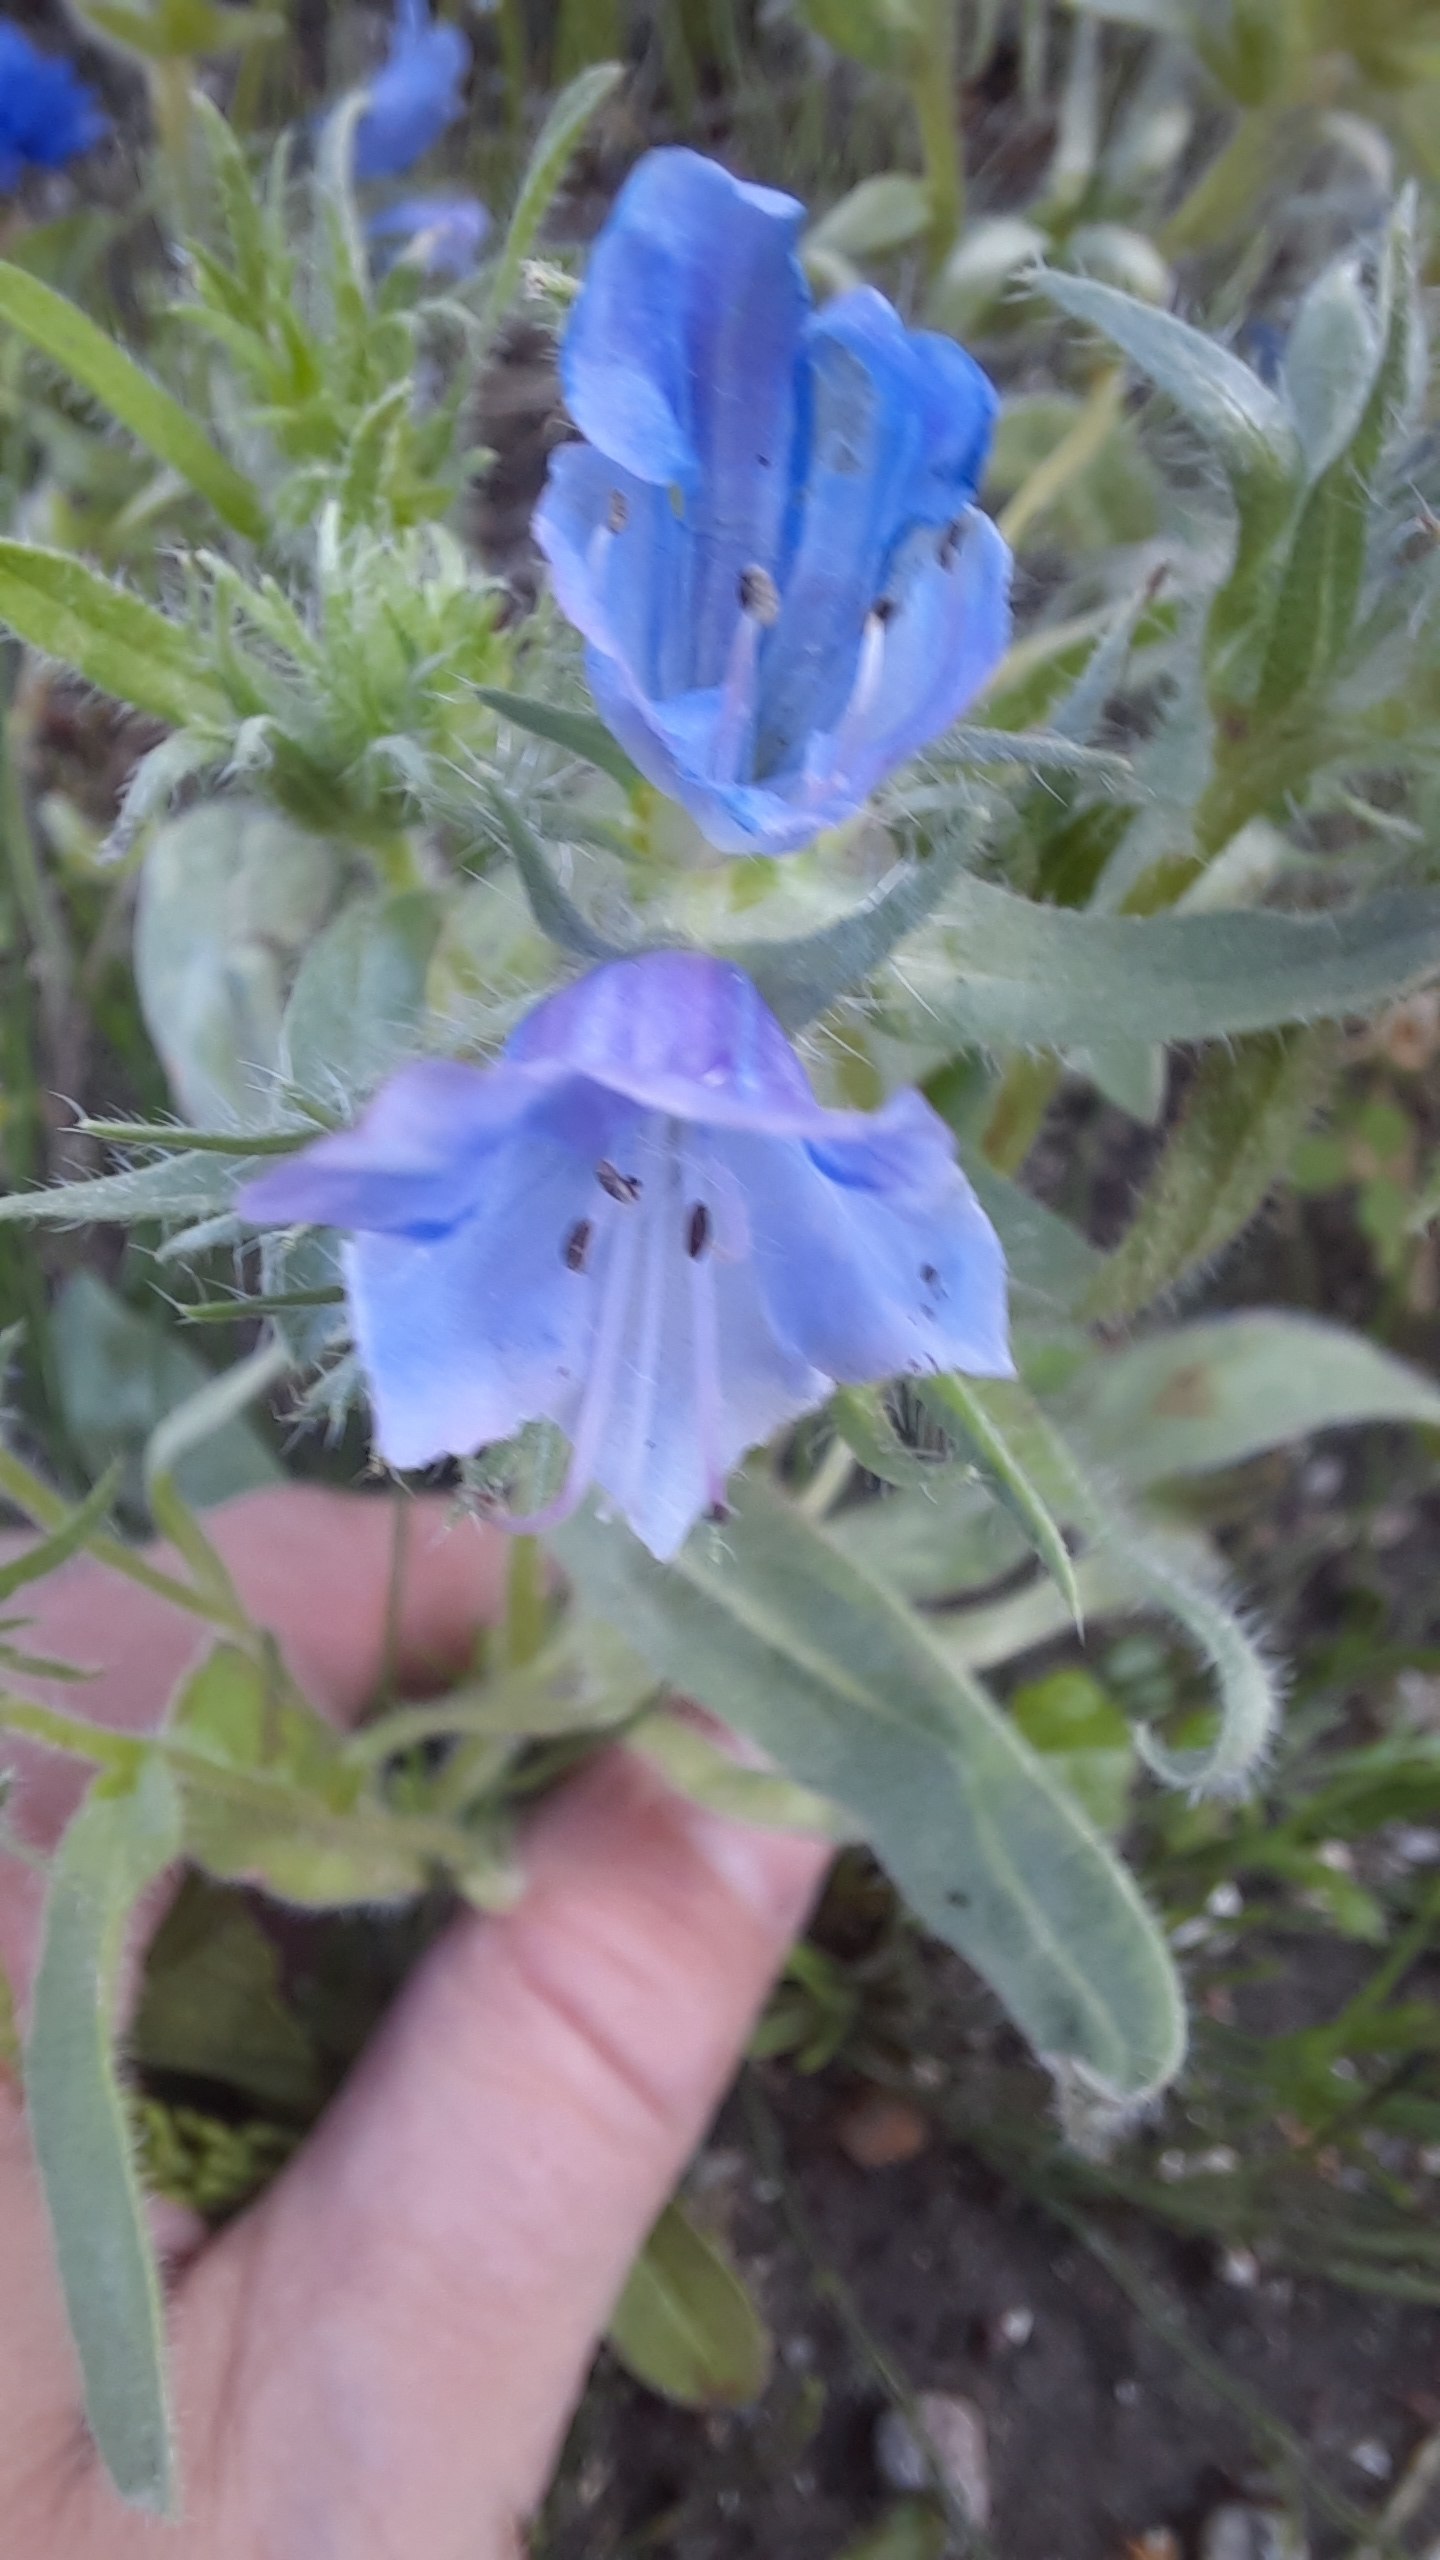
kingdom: Plantae
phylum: Tracheophyta
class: Magnoliopsida
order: Boraginales
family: Boraginaceae
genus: Echium
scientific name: Echium plantagineum
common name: Vejbred-slangehoved
